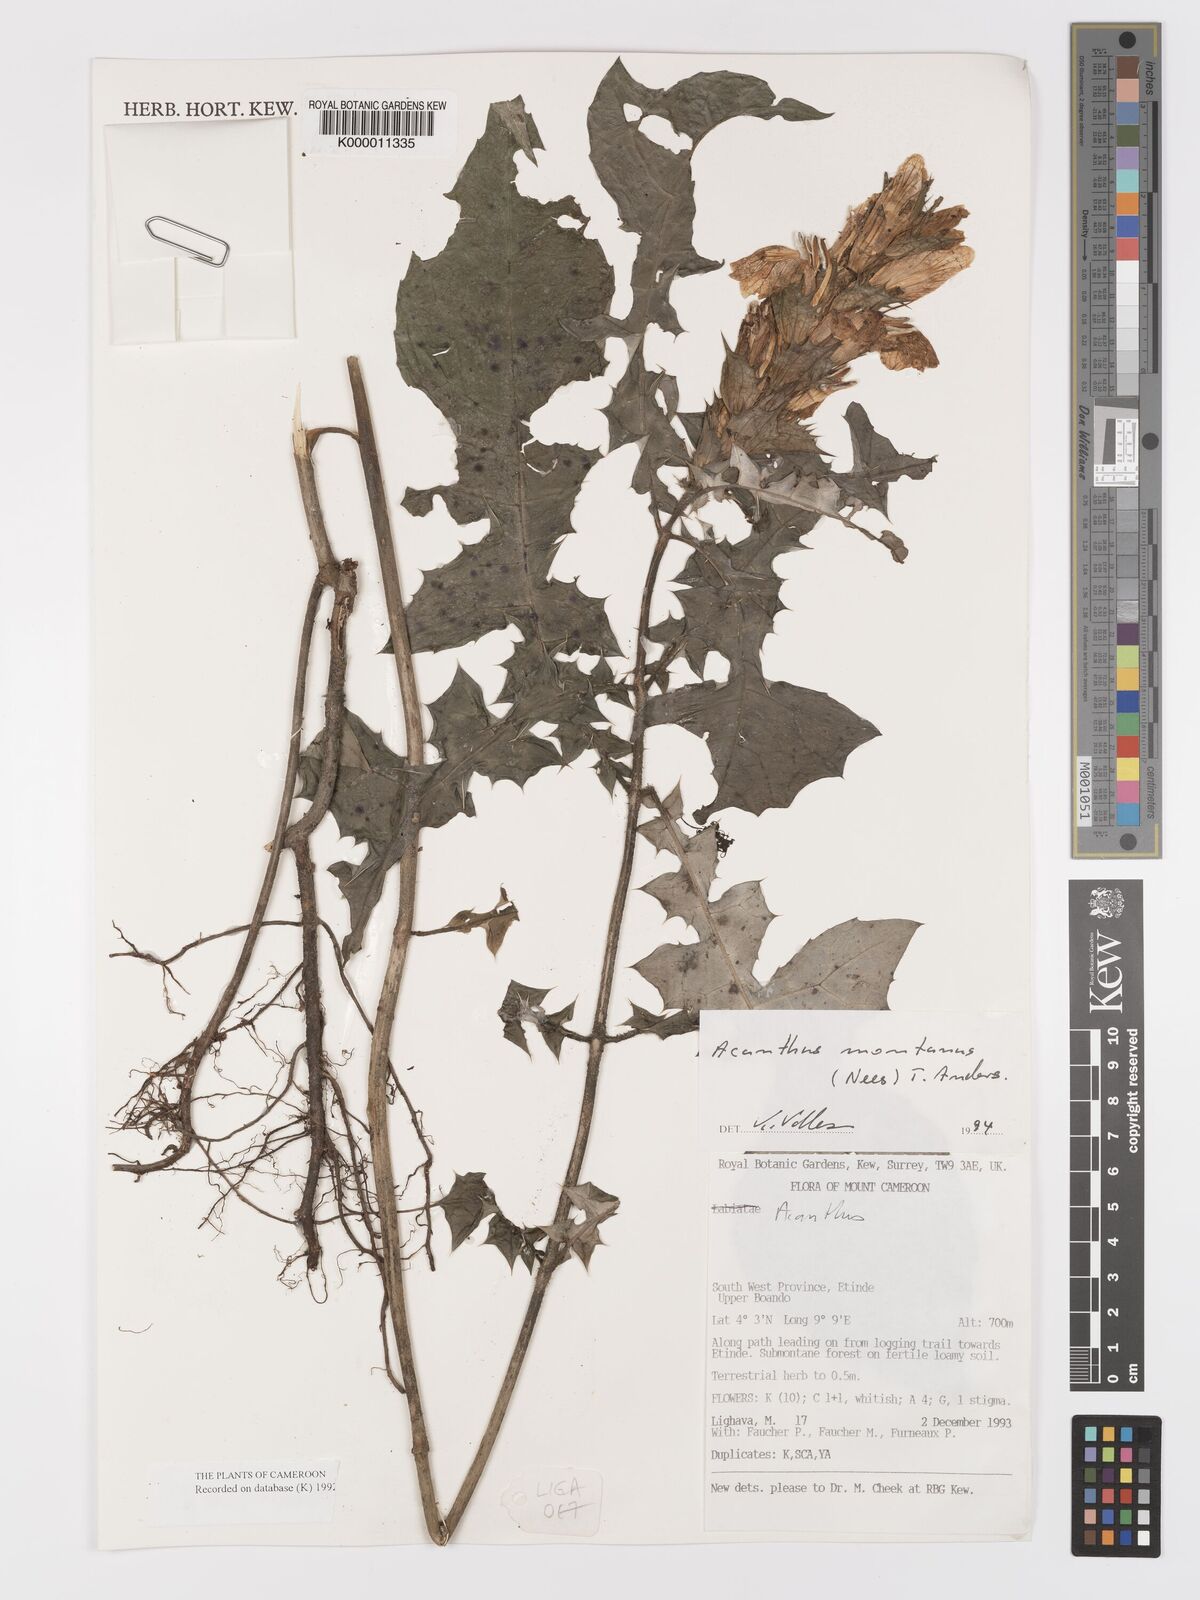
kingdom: Plantae
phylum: Tracheophyta
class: Magnoliopsida
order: Lamiales
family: Acanthaceae
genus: Acanthus
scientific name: Acanthus montanus
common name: Mountain thistle
